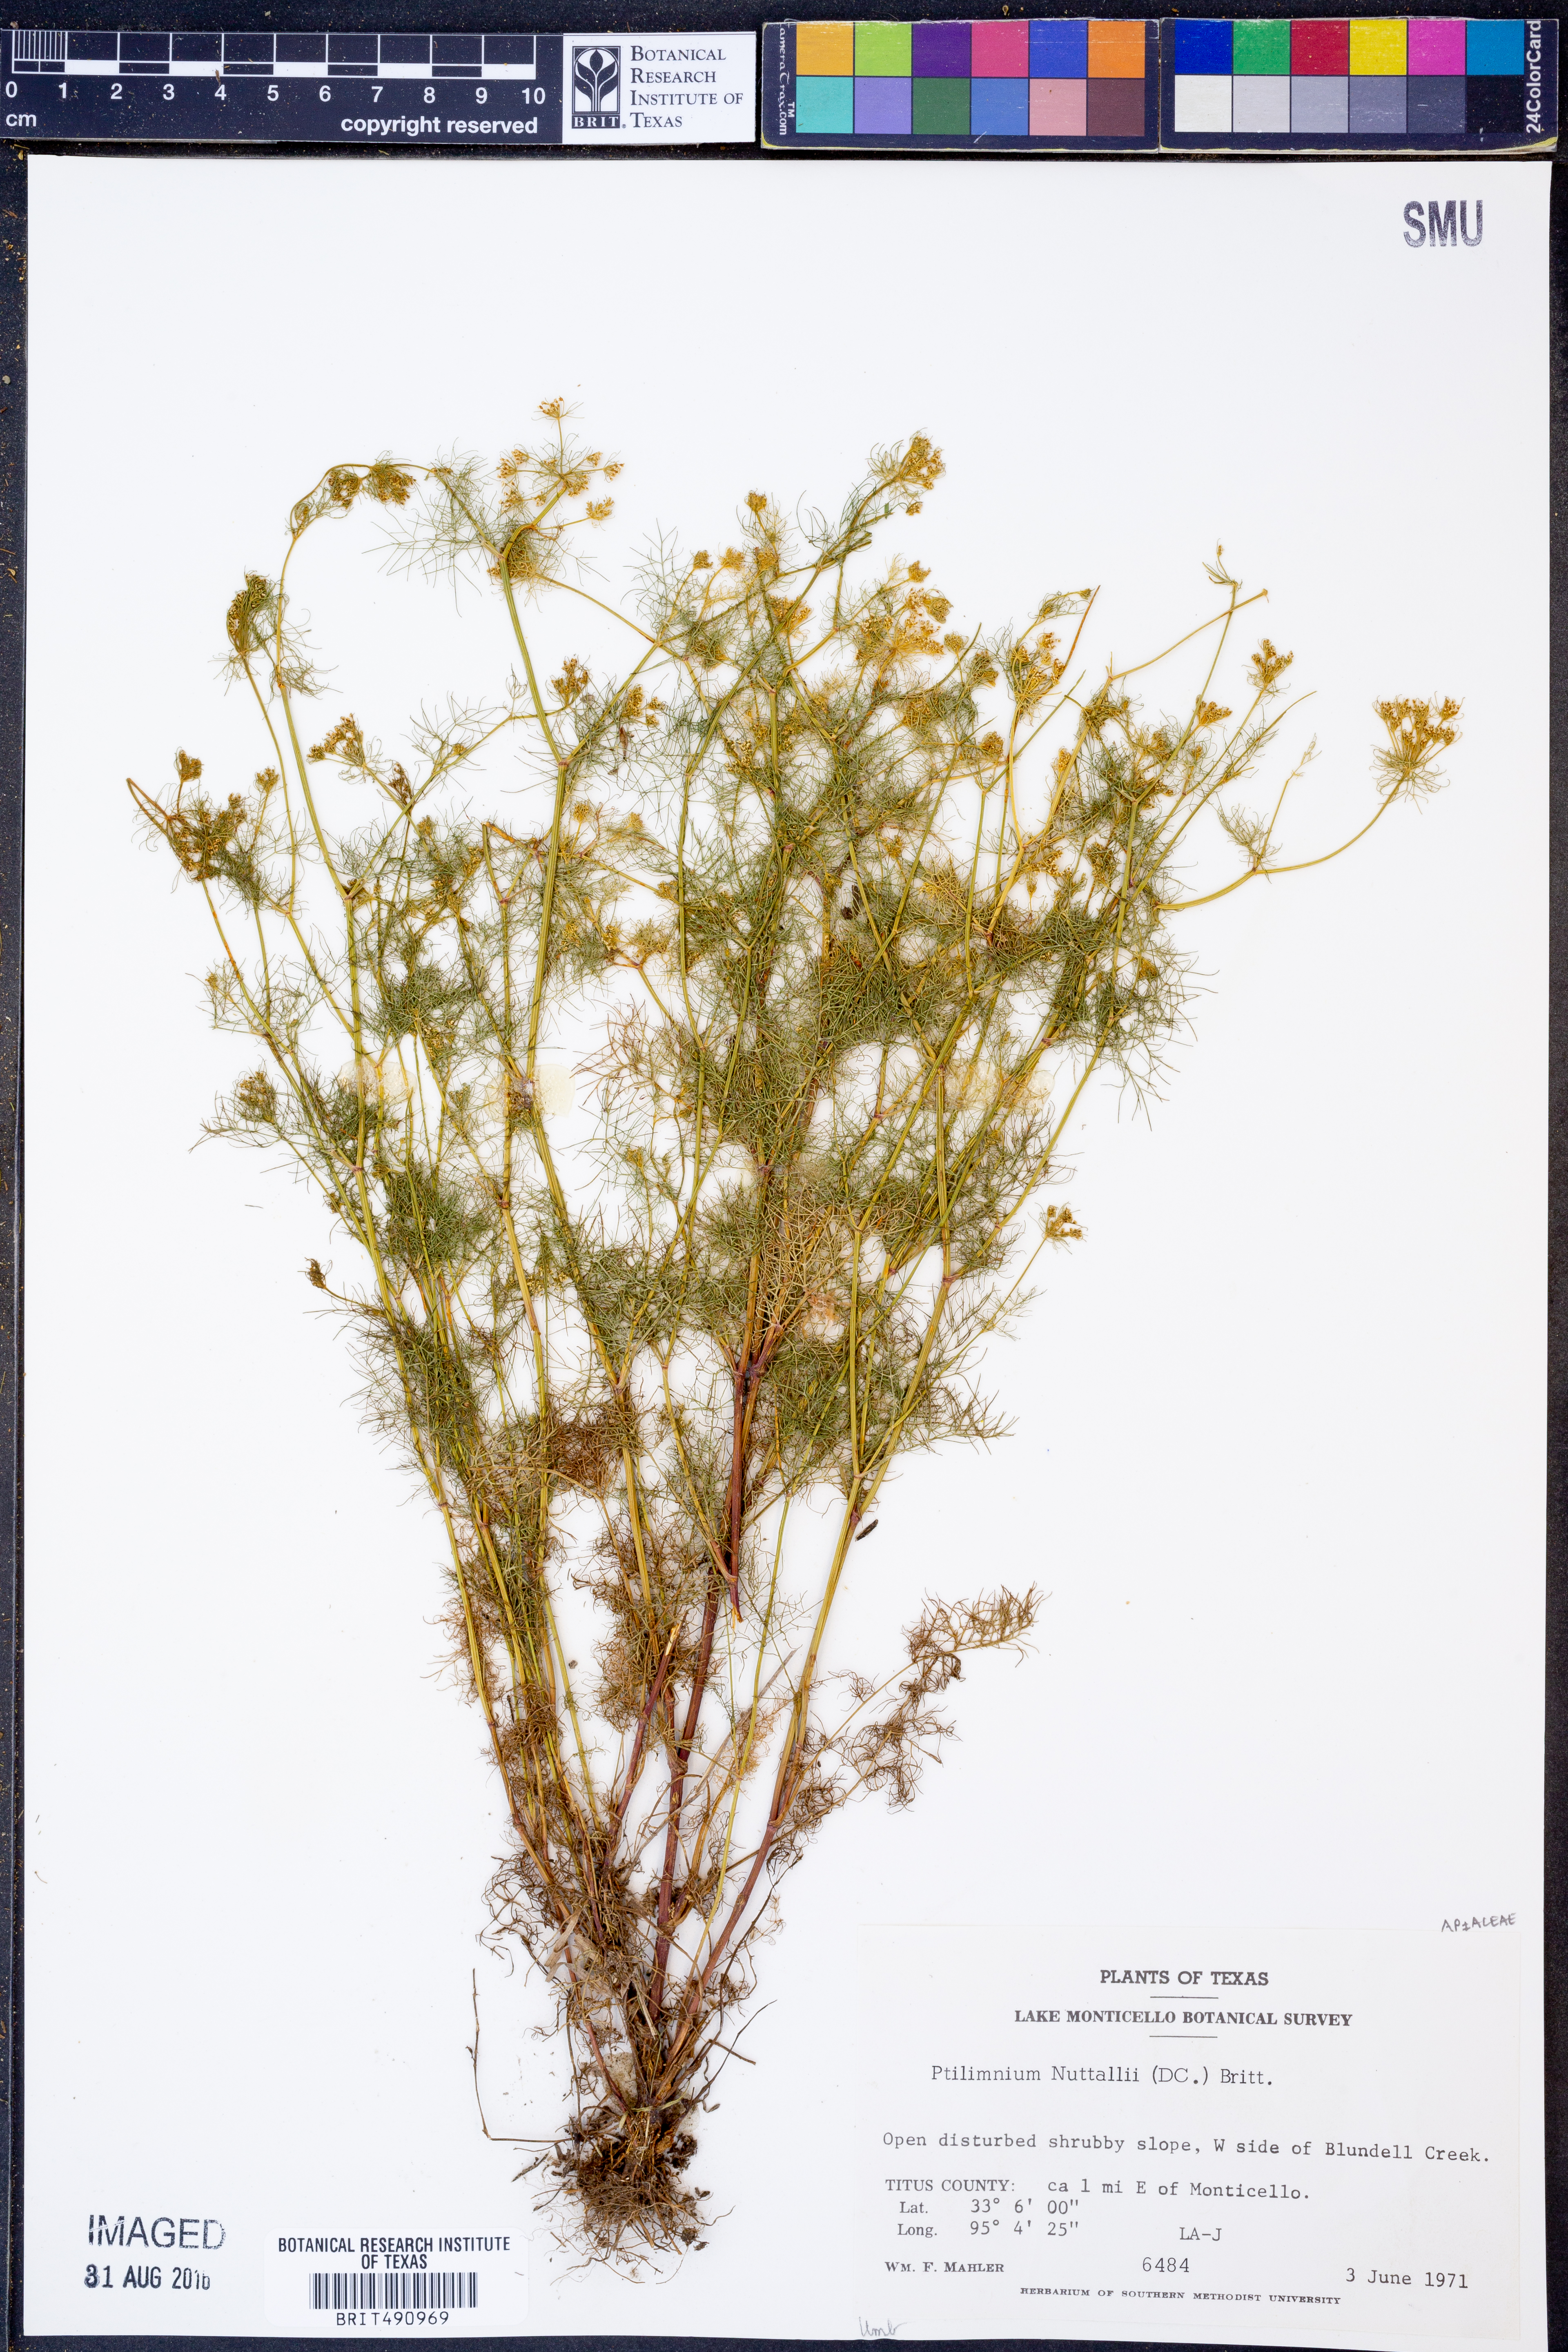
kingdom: Plantae
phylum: Tracheophyta
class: Magnoliopsida
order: Apiales
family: Apiaceae
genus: Ptilimnium
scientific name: Ptilimnium nuttallii
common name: Ozark bishop's-weed
